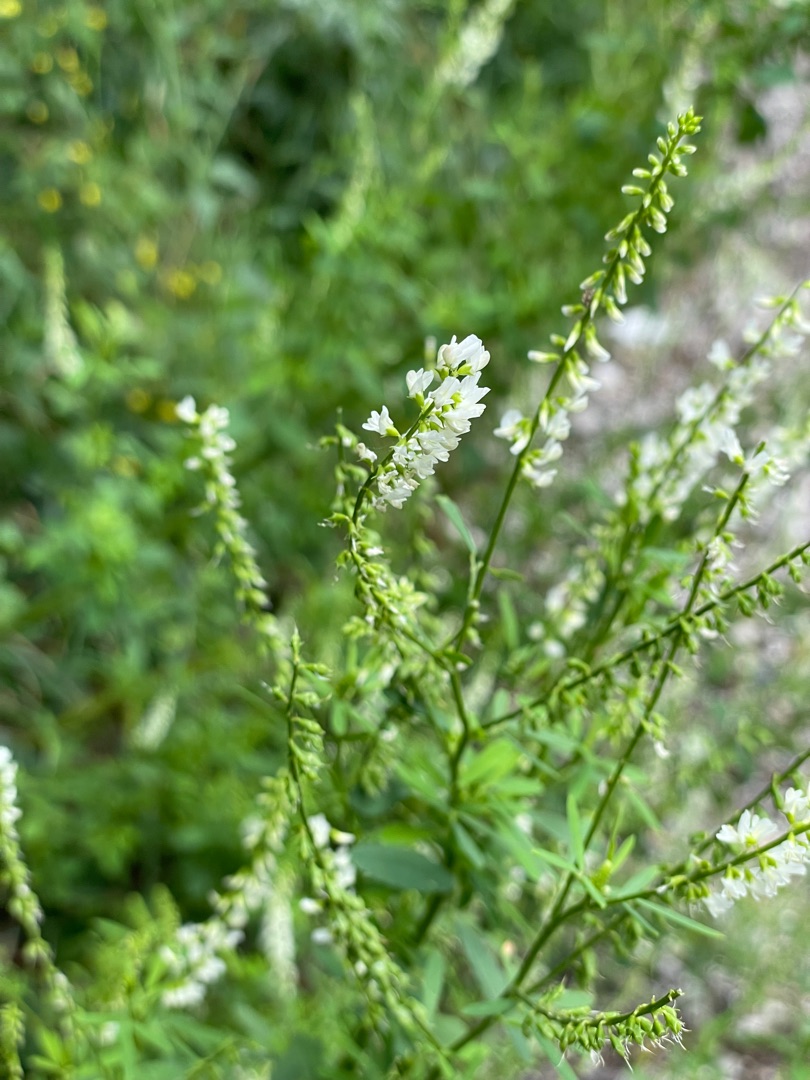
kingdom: Plantae
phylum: Tracheophyta
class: Magnoliopsida
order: Fabales
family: Fabaceae
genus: Melilotus
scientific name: Melilotus albus
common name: Hvid stenkløver
